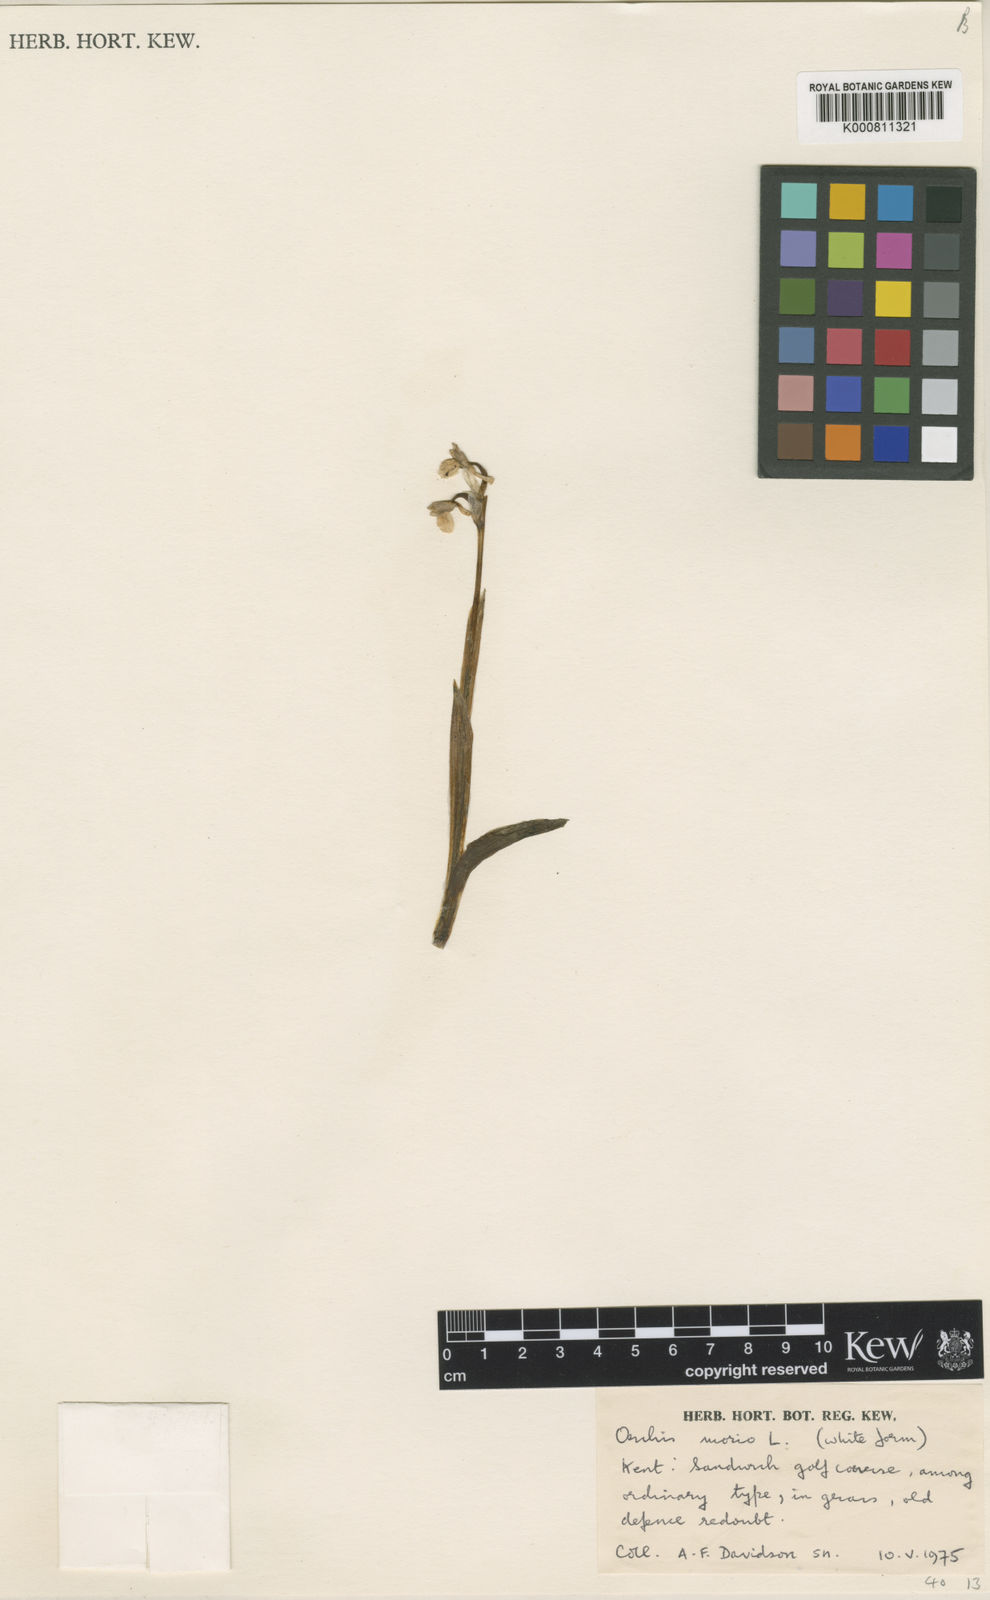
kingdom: Plantae
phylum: Tracheophyta
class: Liliopsida
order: Asparagales
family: Orchidaceae
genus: Anacamptis
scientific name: Anacamptis morio
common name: Green-winged orchid
